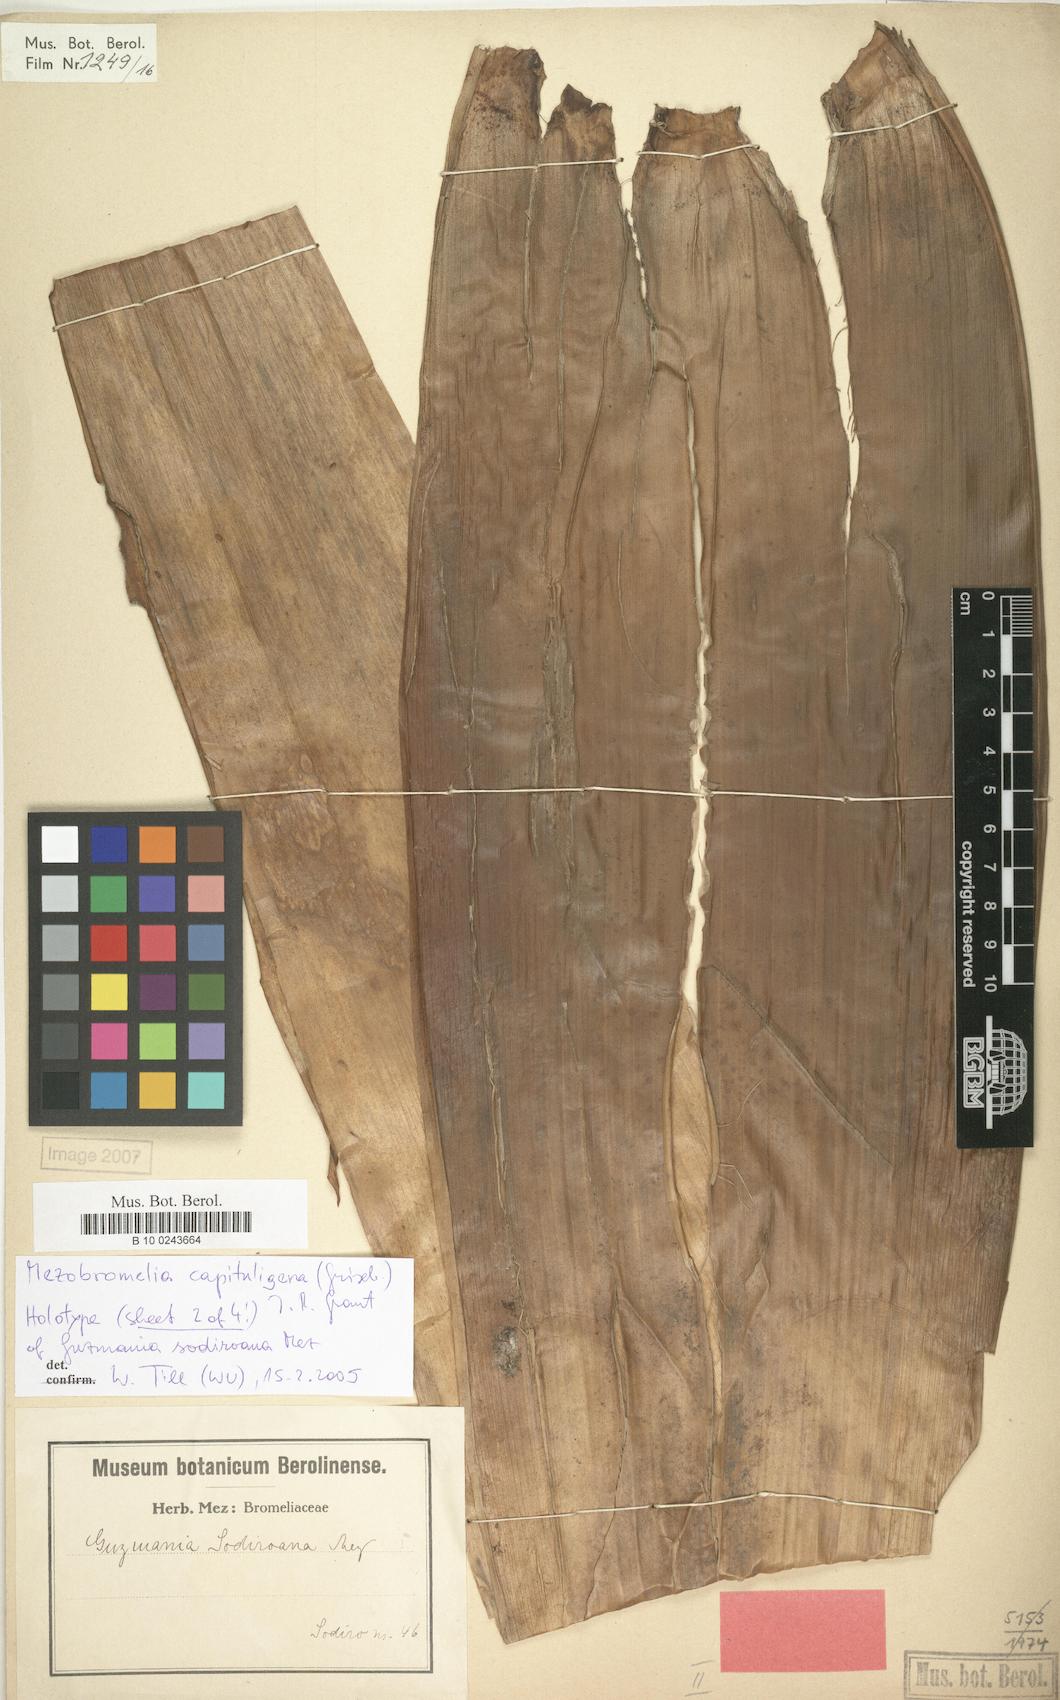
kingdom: Plantae
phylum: Tracheophyta
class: Liliopsida
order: Poales
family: Bromeliaceae
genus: Cipuropsis
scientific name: Cipuropsis capituligera
